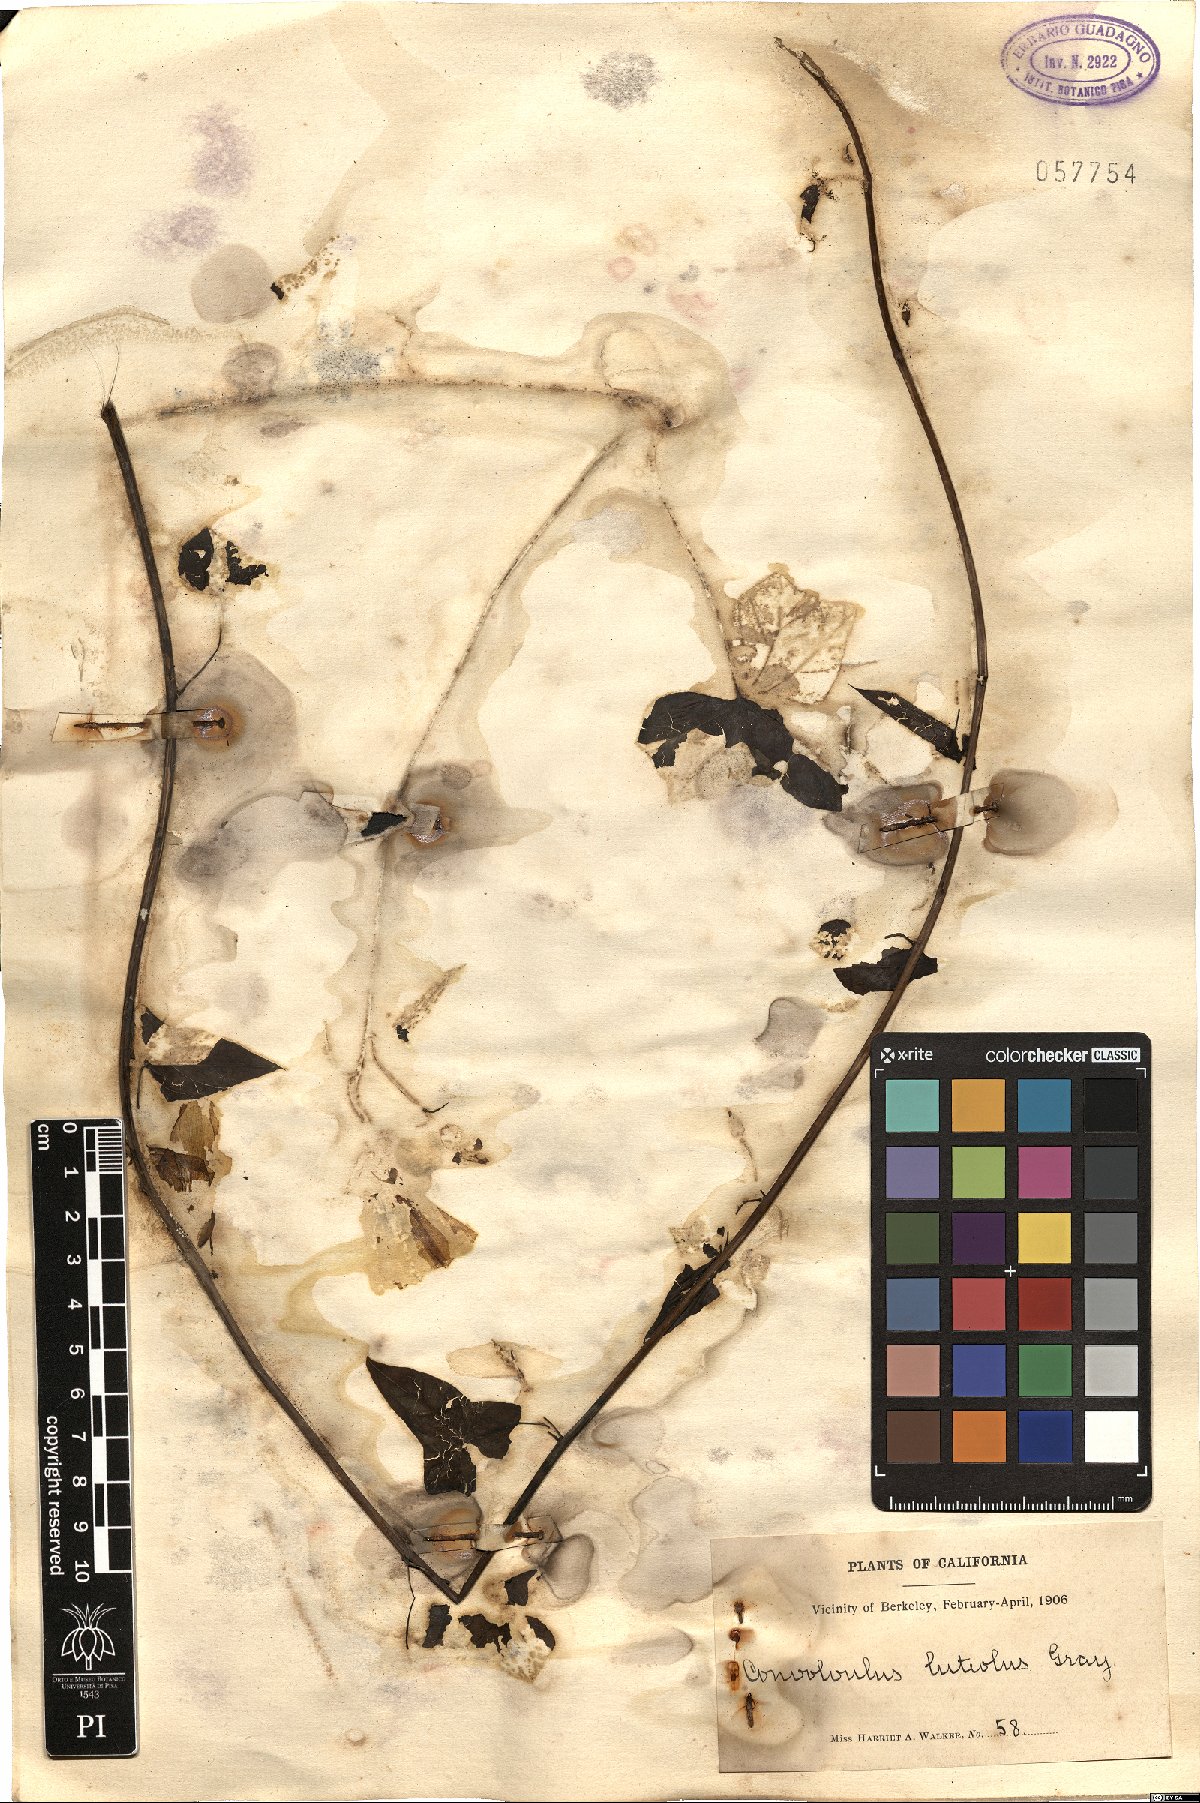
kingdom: Plantae
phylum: Tracheophyta
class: Magnoliopsida
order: Solanales
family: Convolvulaceae
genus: Calystegia
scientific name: Calystegia
